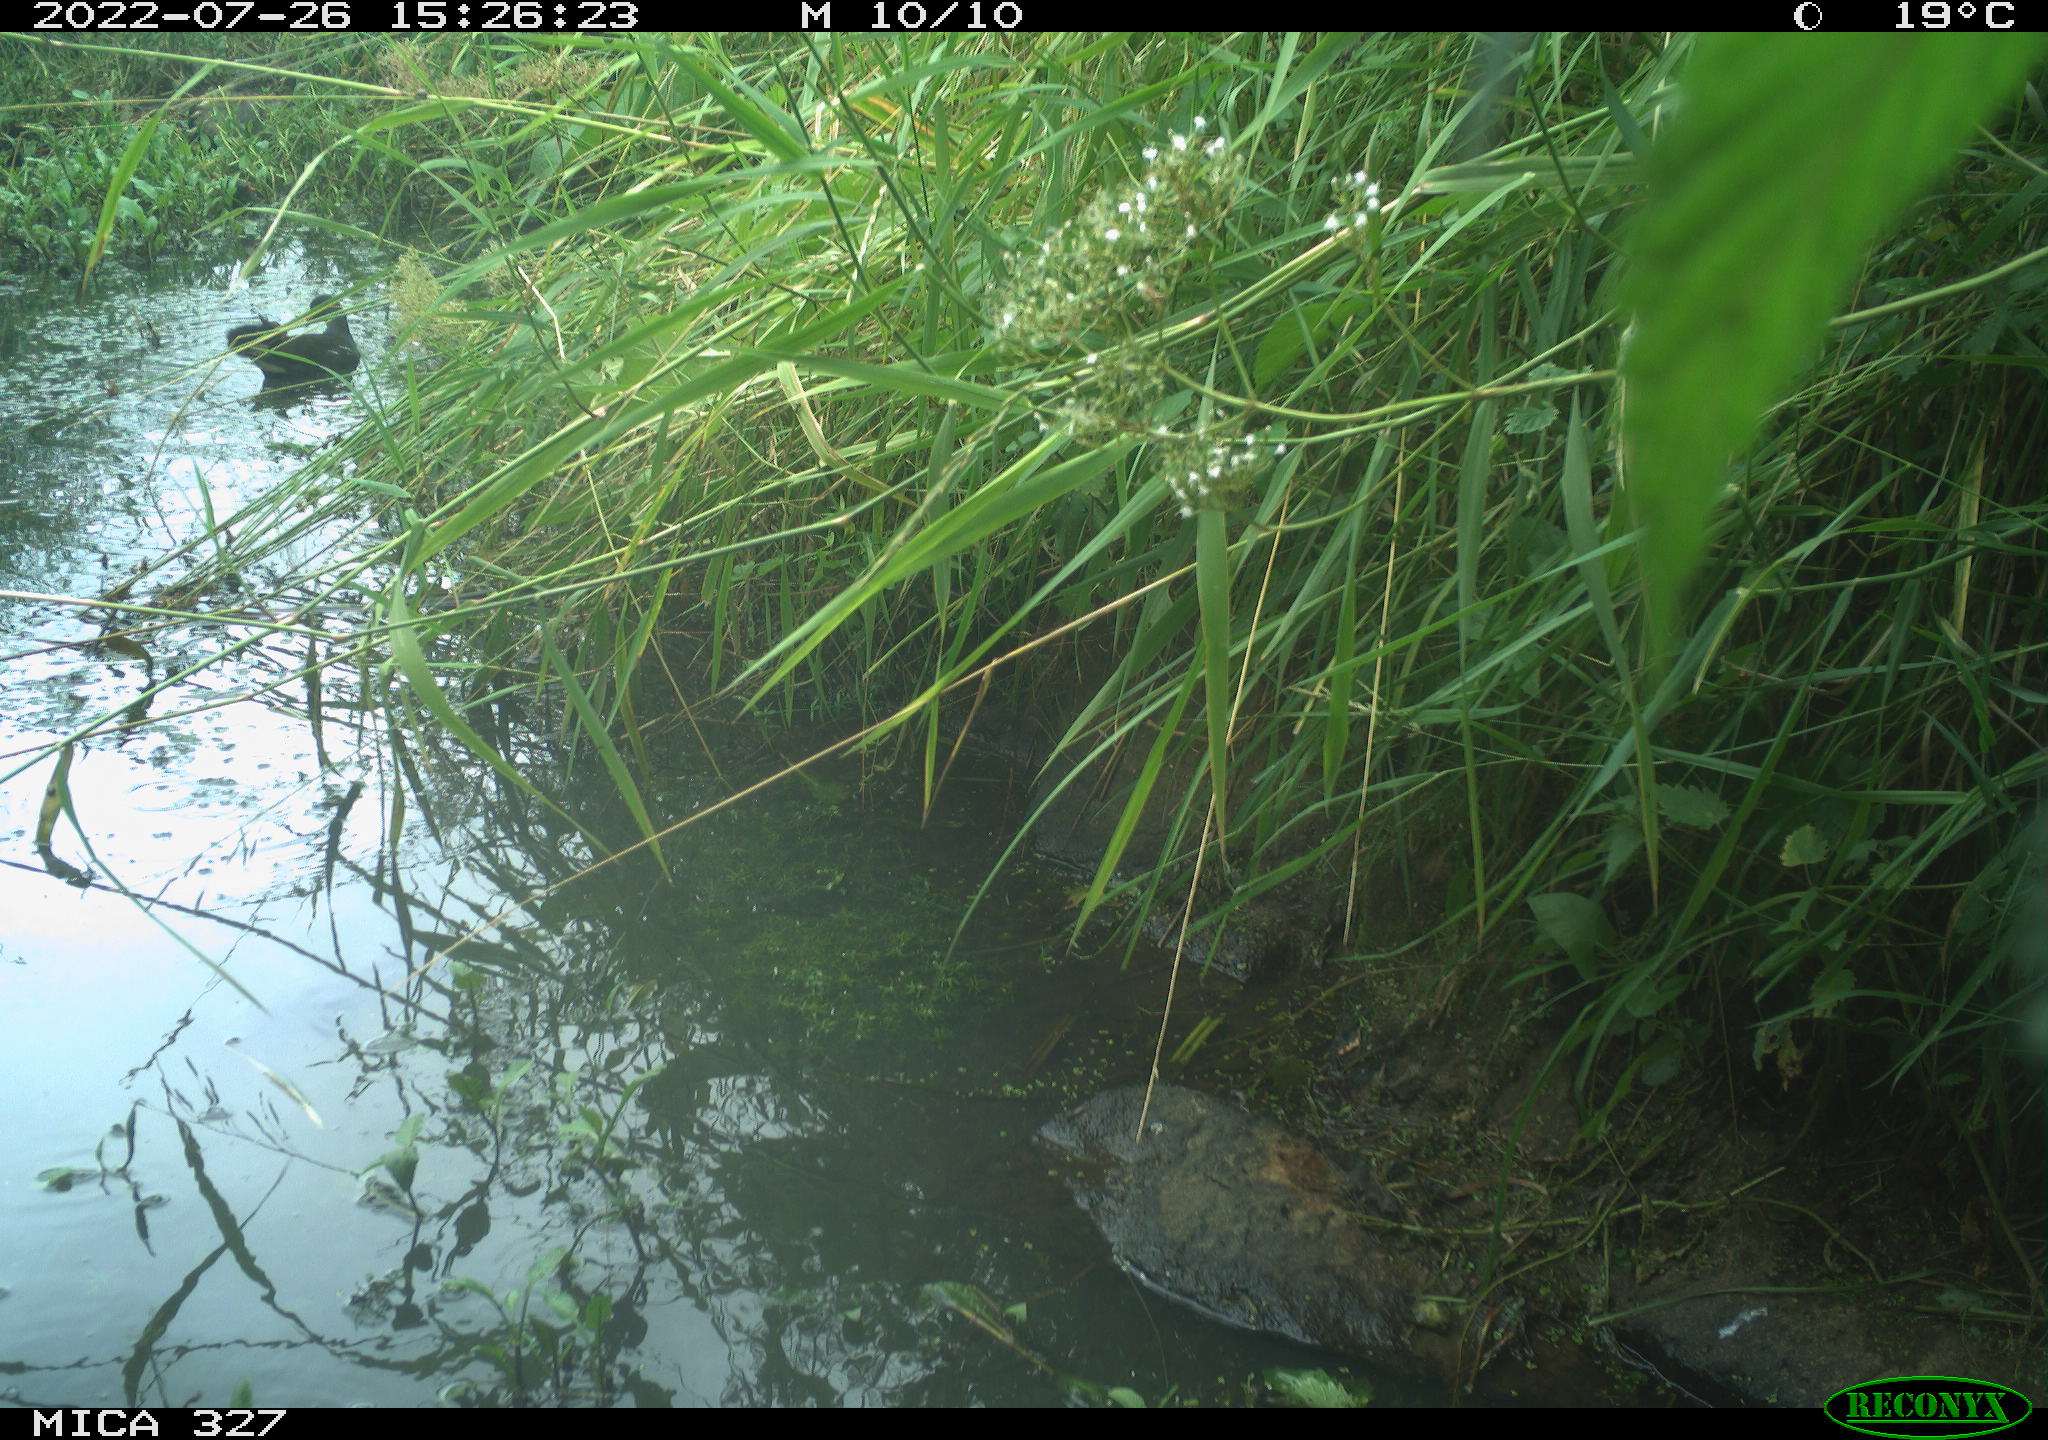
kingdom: Animalia
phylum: Chordata
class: Aves
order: Gruiformes
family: Rallidae
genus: Gallinula
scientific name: Gallinula chloropus
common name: Common moorhen
